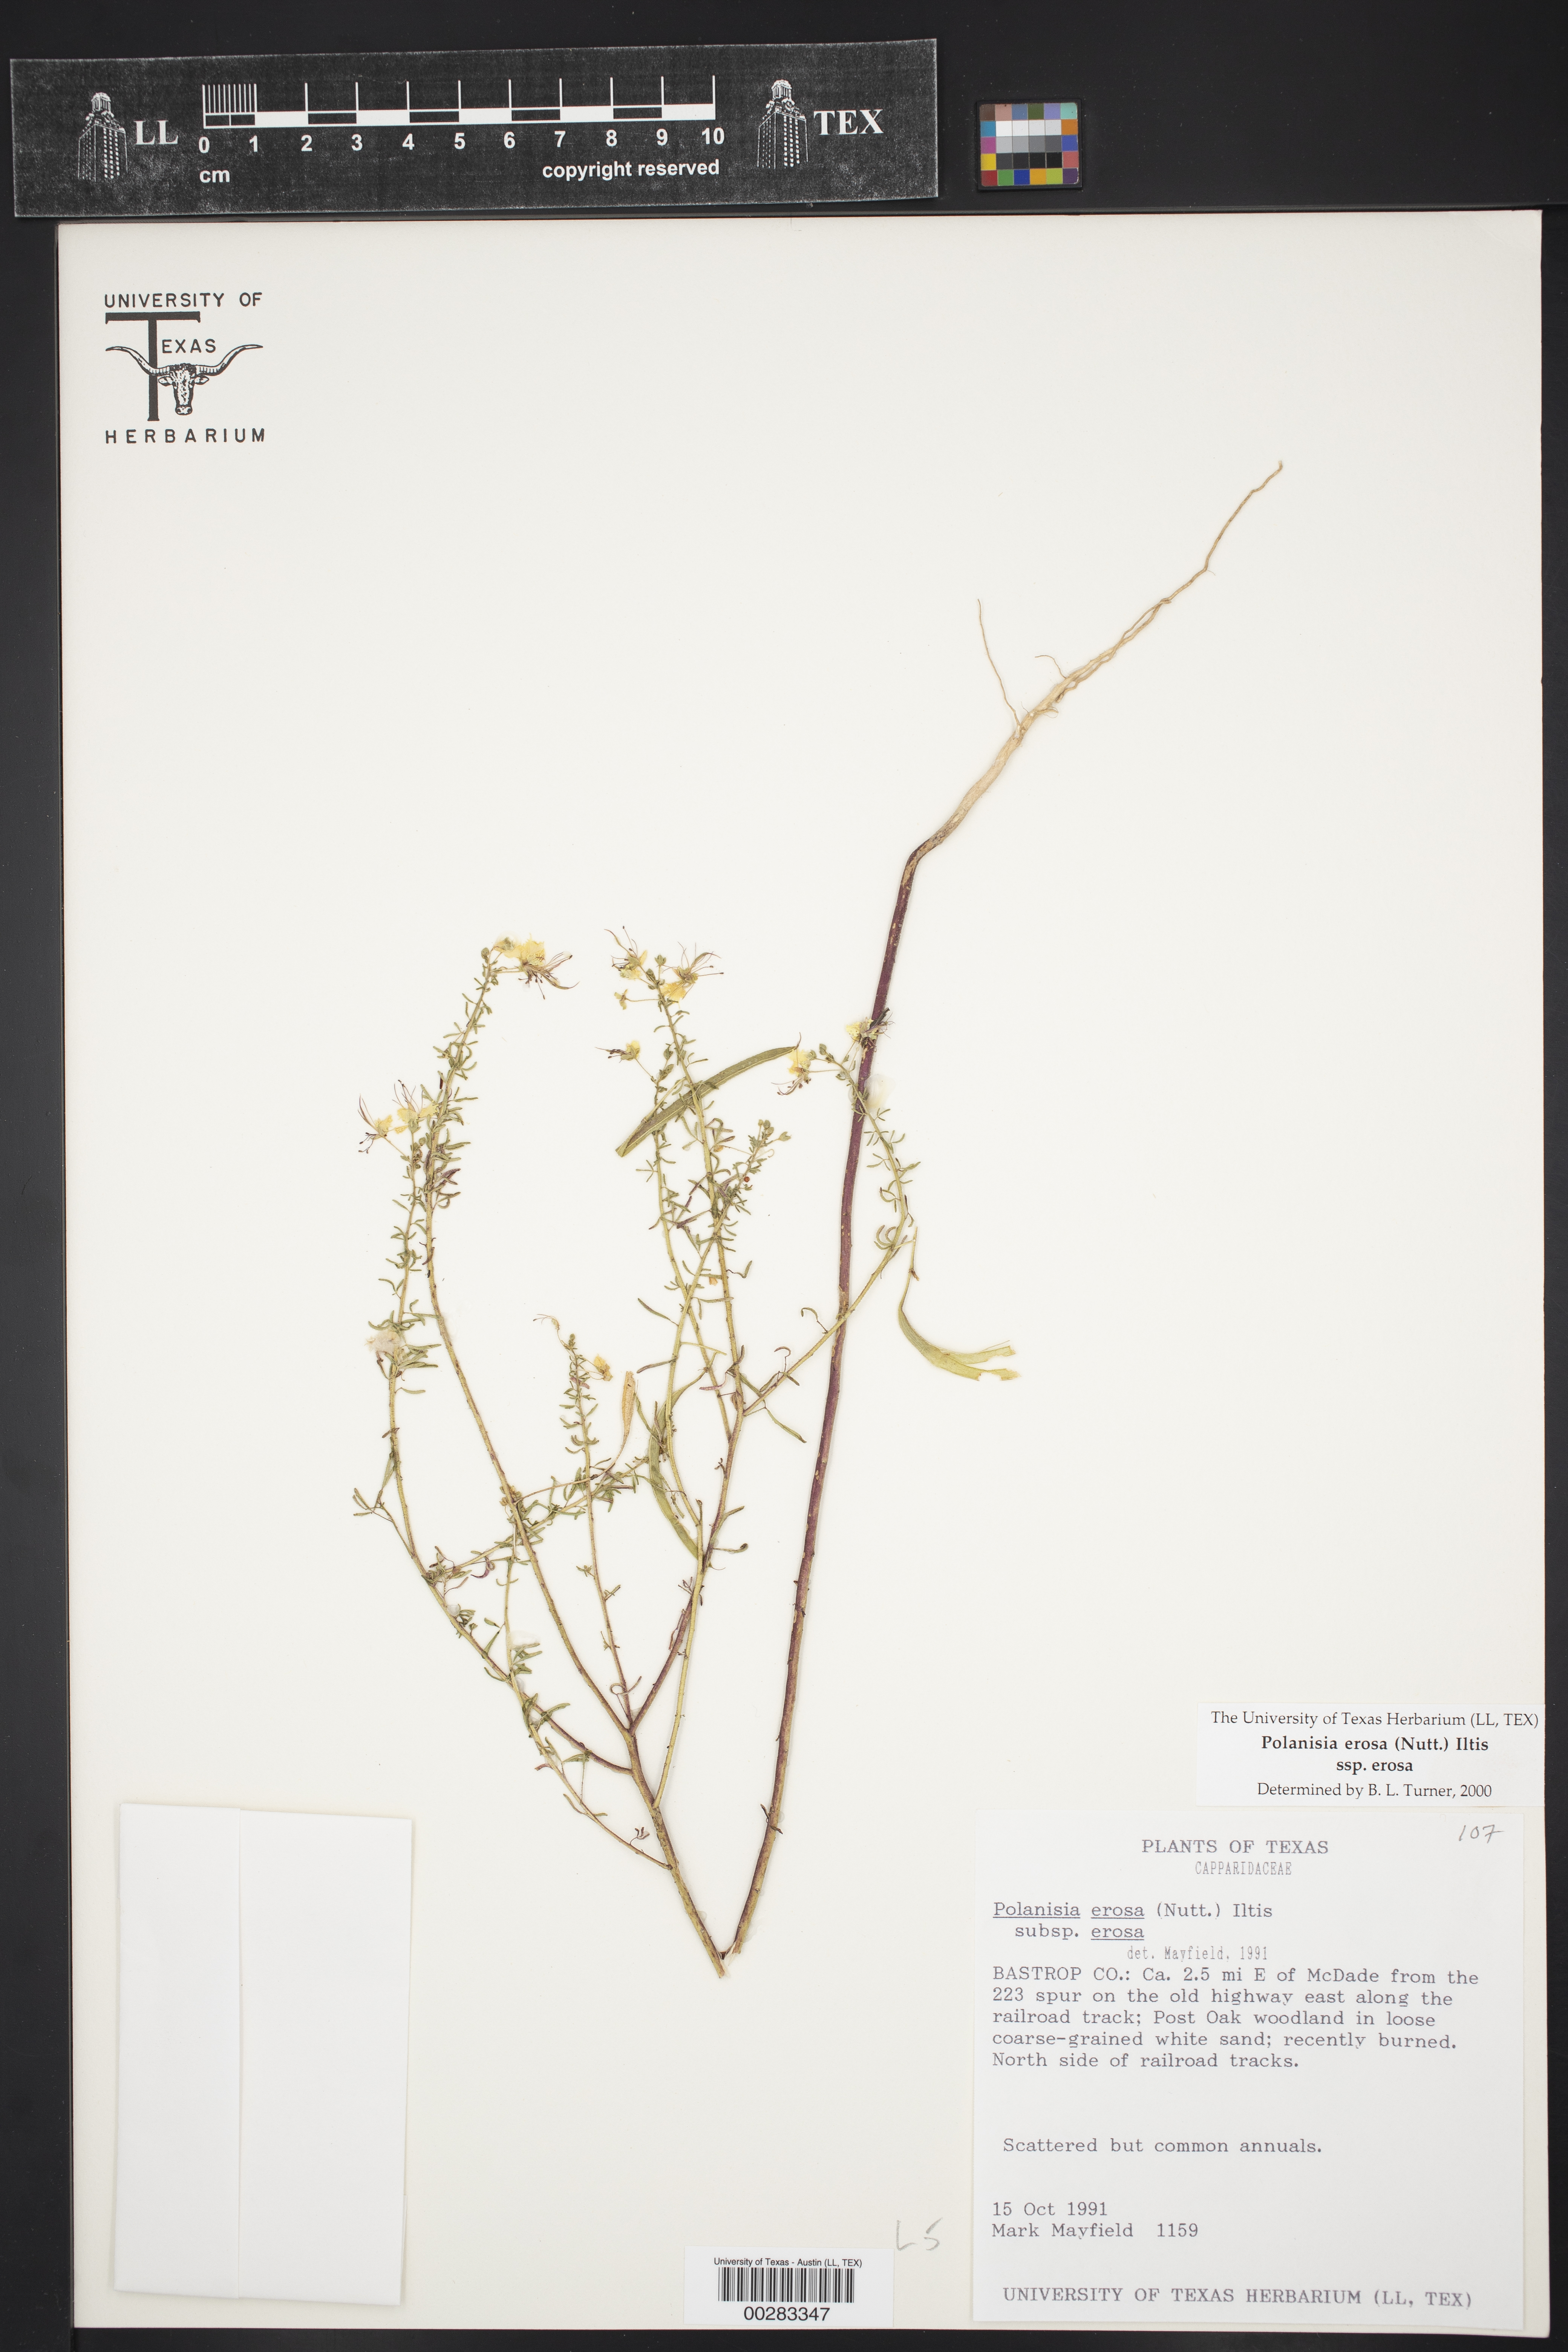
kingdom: Plantae
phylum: Tracheophyta
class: Magnoliopsida
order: Brassicales
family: Cleomaceae
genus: Polanisia
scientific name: Polanisia erosa
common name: Large clammyweed
